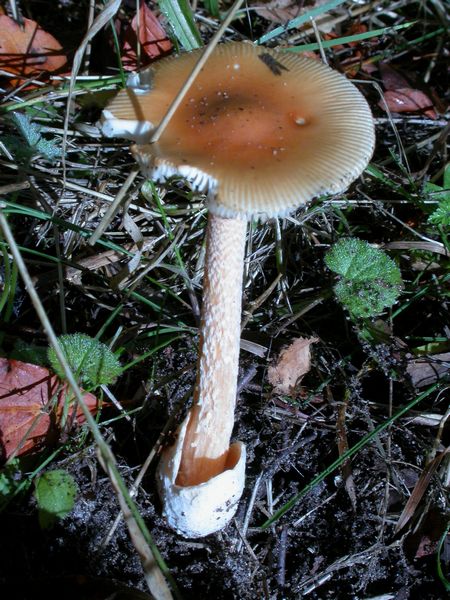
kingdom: Fungi
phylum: Basidiomycota
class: Agaricomycetes
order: Agaricales
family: Amanitaceae
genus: Amanita
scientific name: Amanita crocea
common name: gylden kam-fluesvamp
